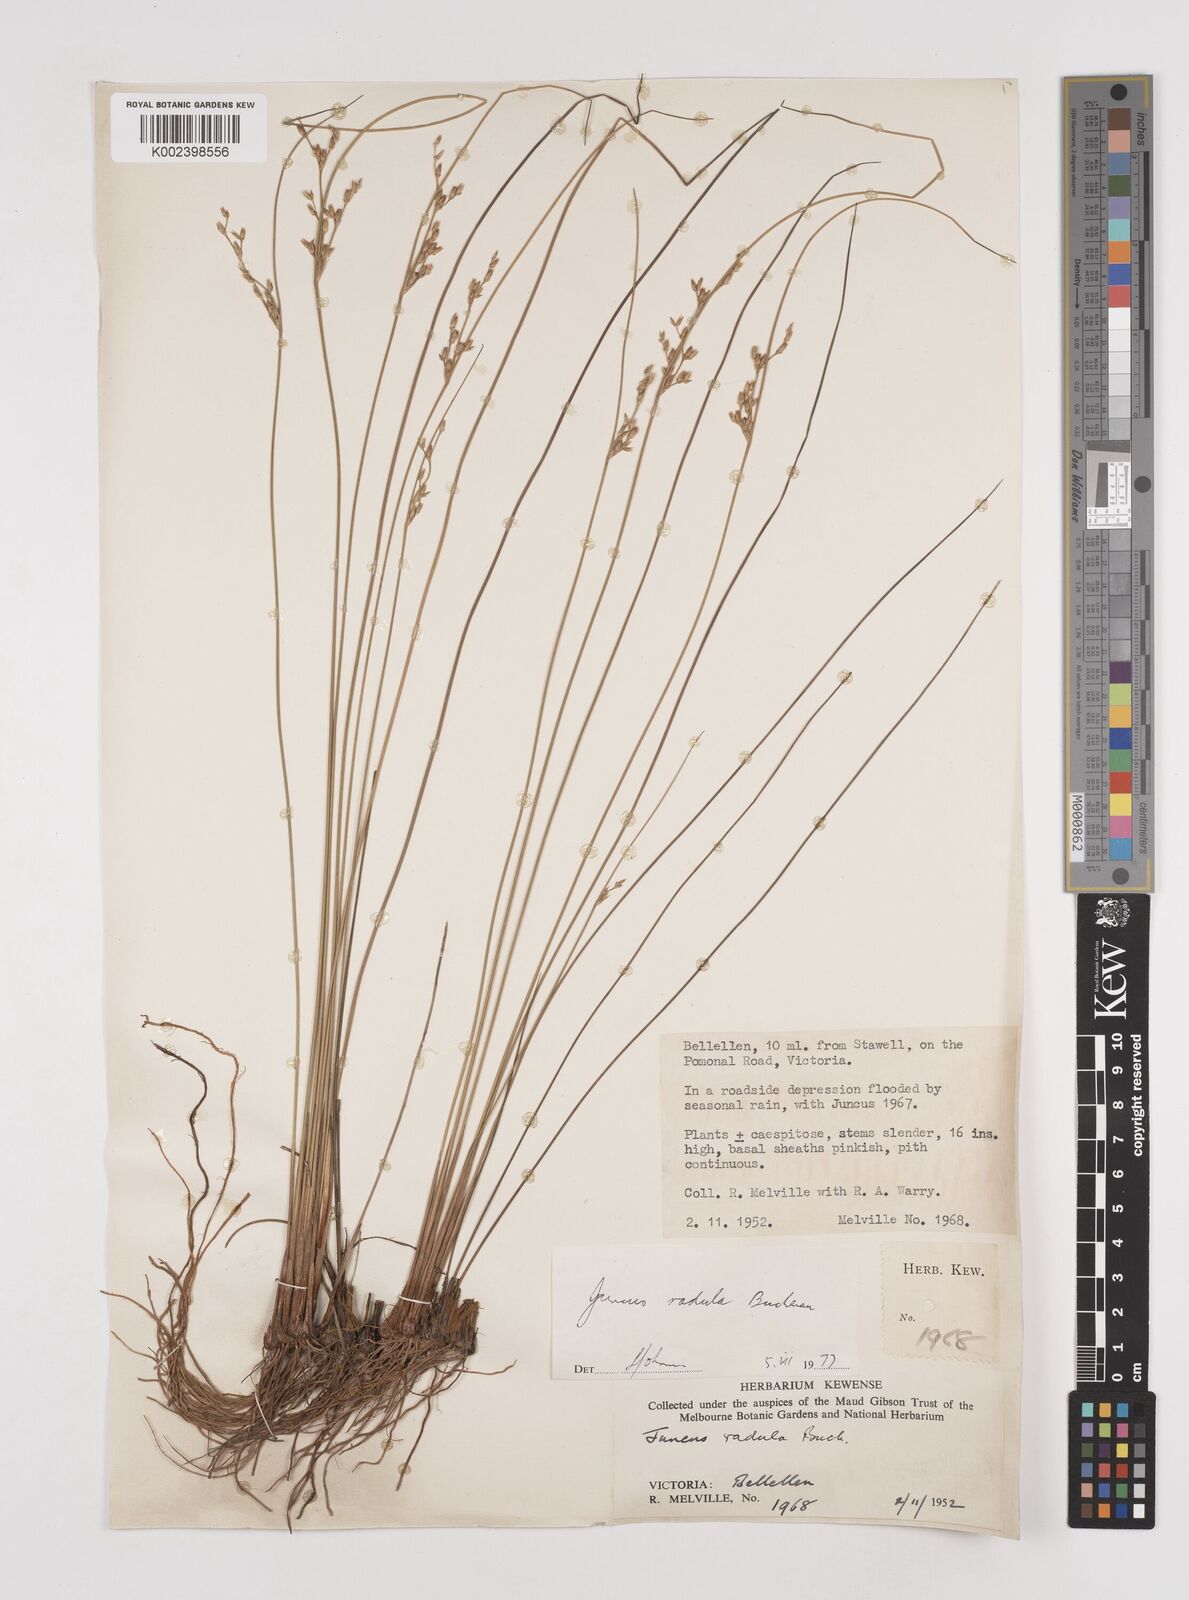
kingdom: Plantae
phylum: Tracheophyta
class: Liliopsida
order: Poales
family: Juncaceae
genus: Juncus
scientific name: Juncus radula
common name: Hoary rush
